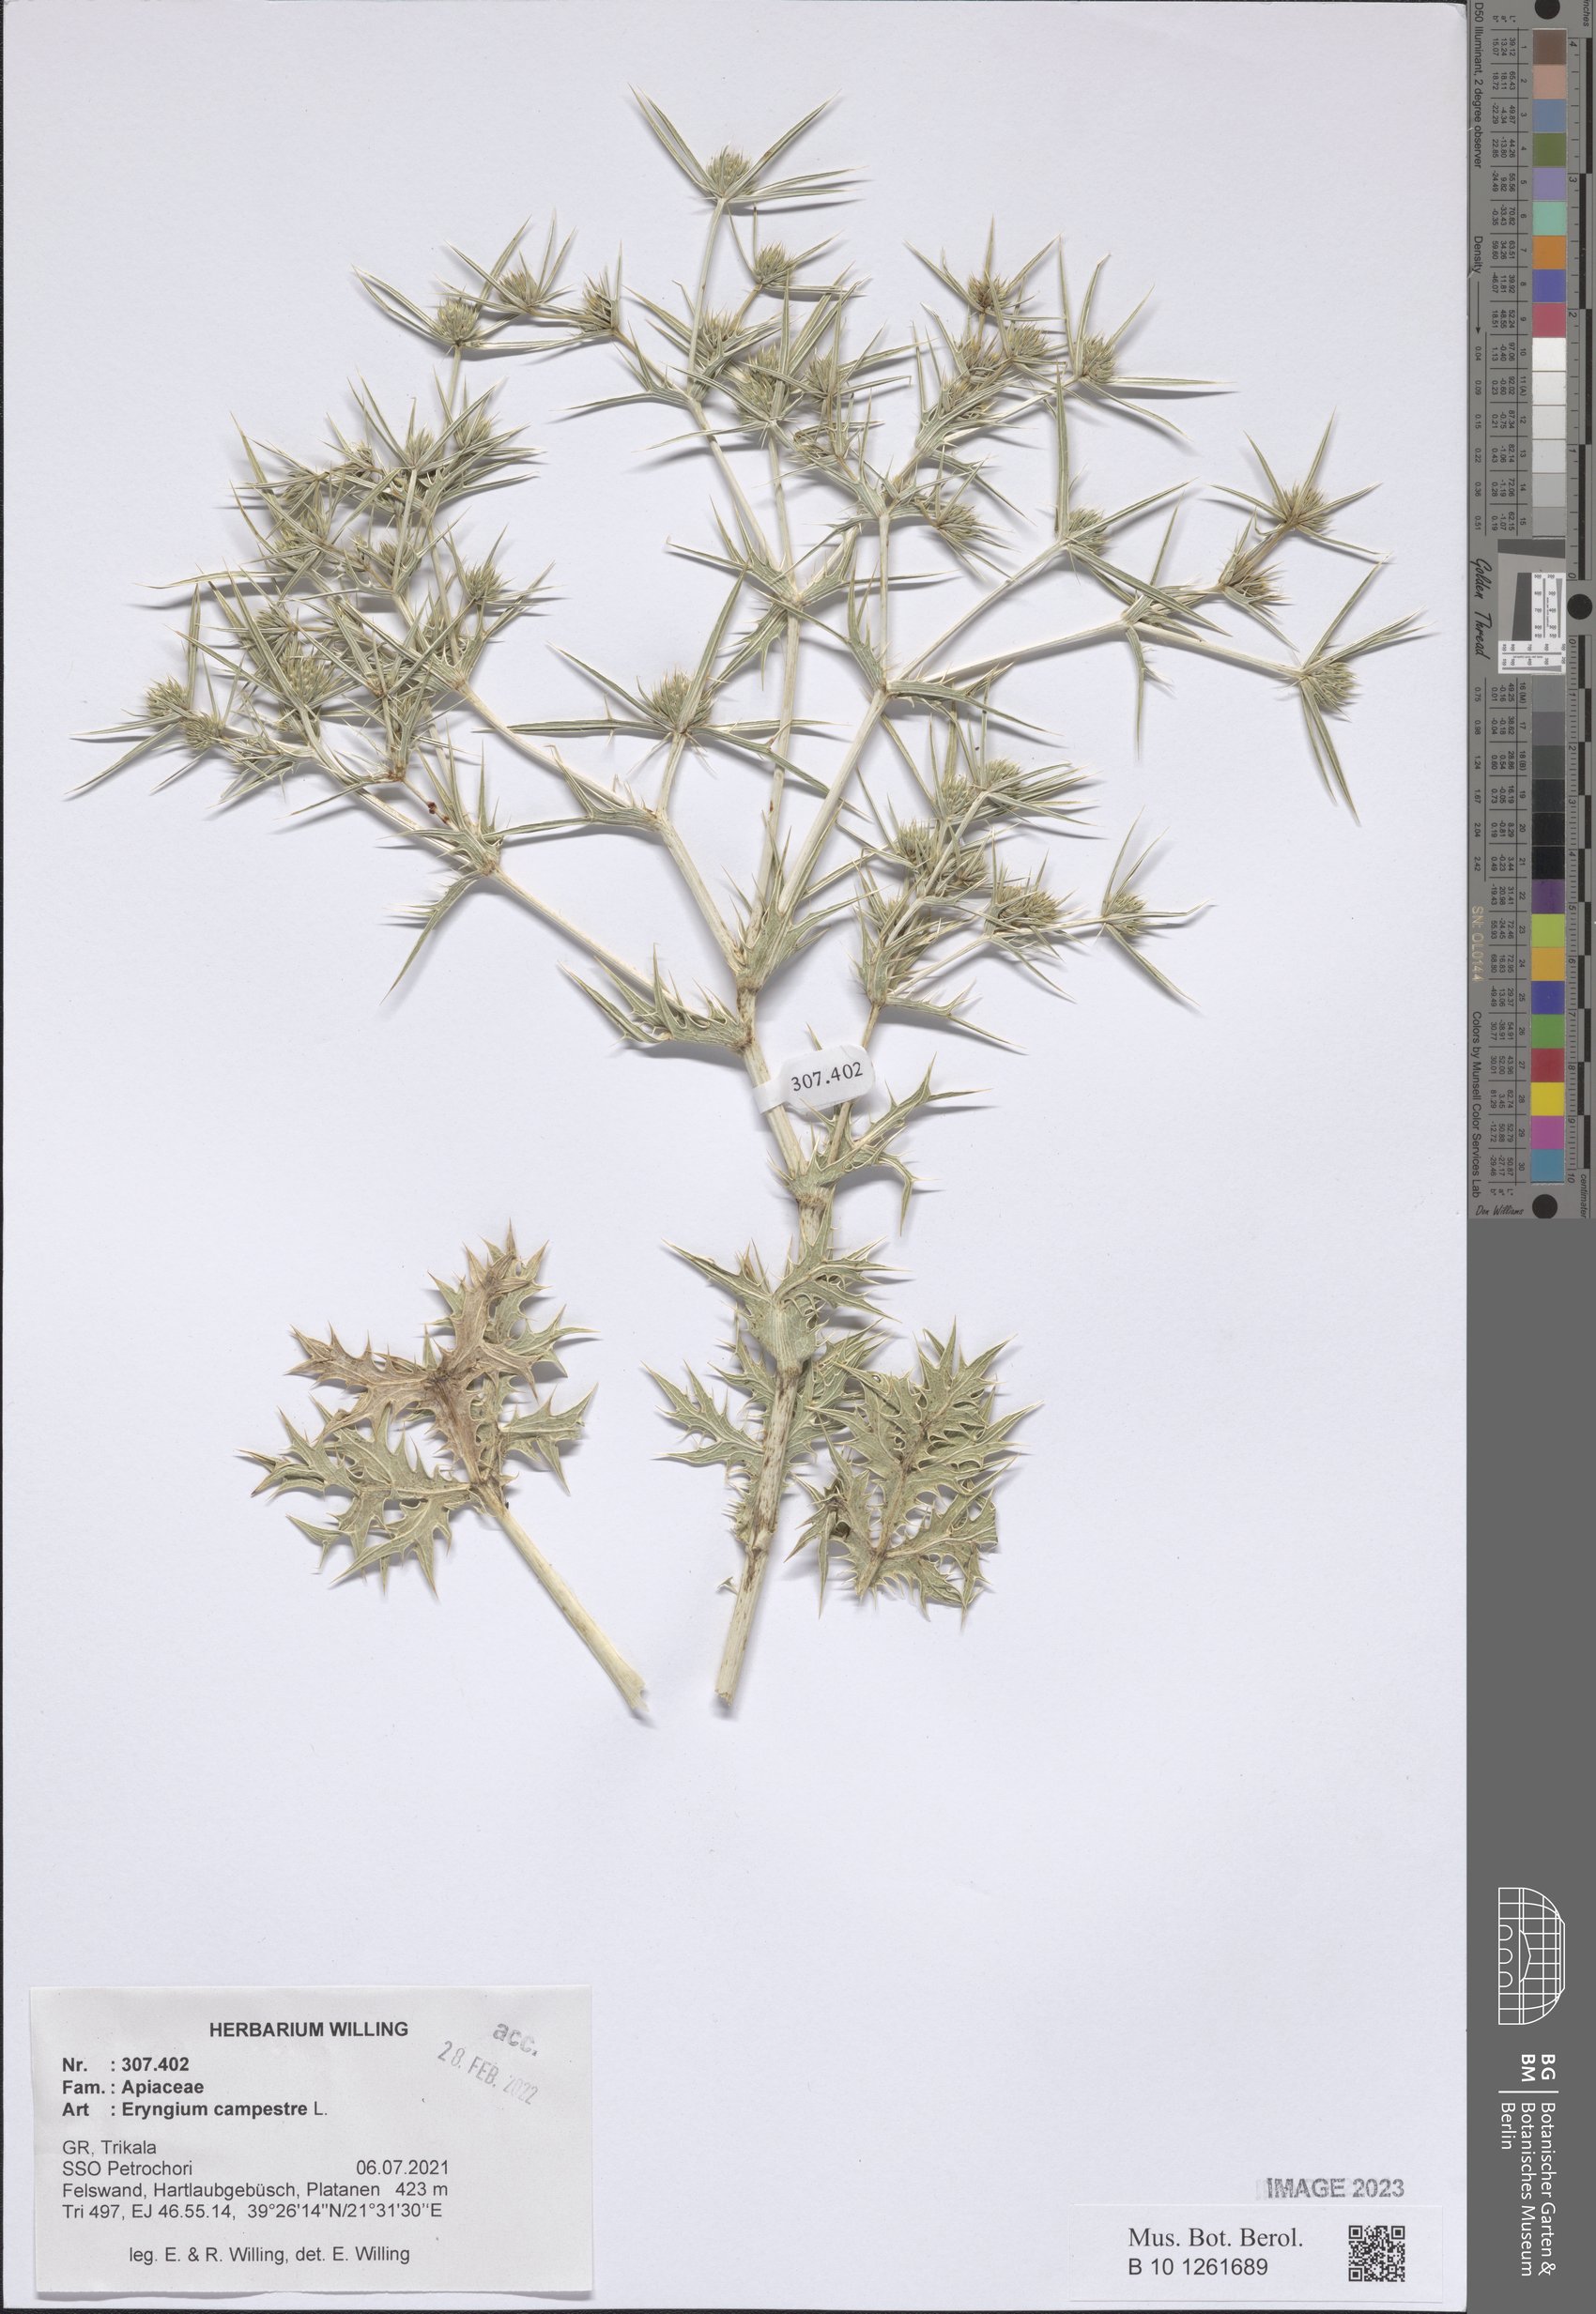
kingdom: Plantae
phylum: Tracheophyta
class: Magnoliopsida
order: Apiales
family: Apiaceae
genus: Eryngium
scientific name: Eryngium campestre
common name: Field eryngo
